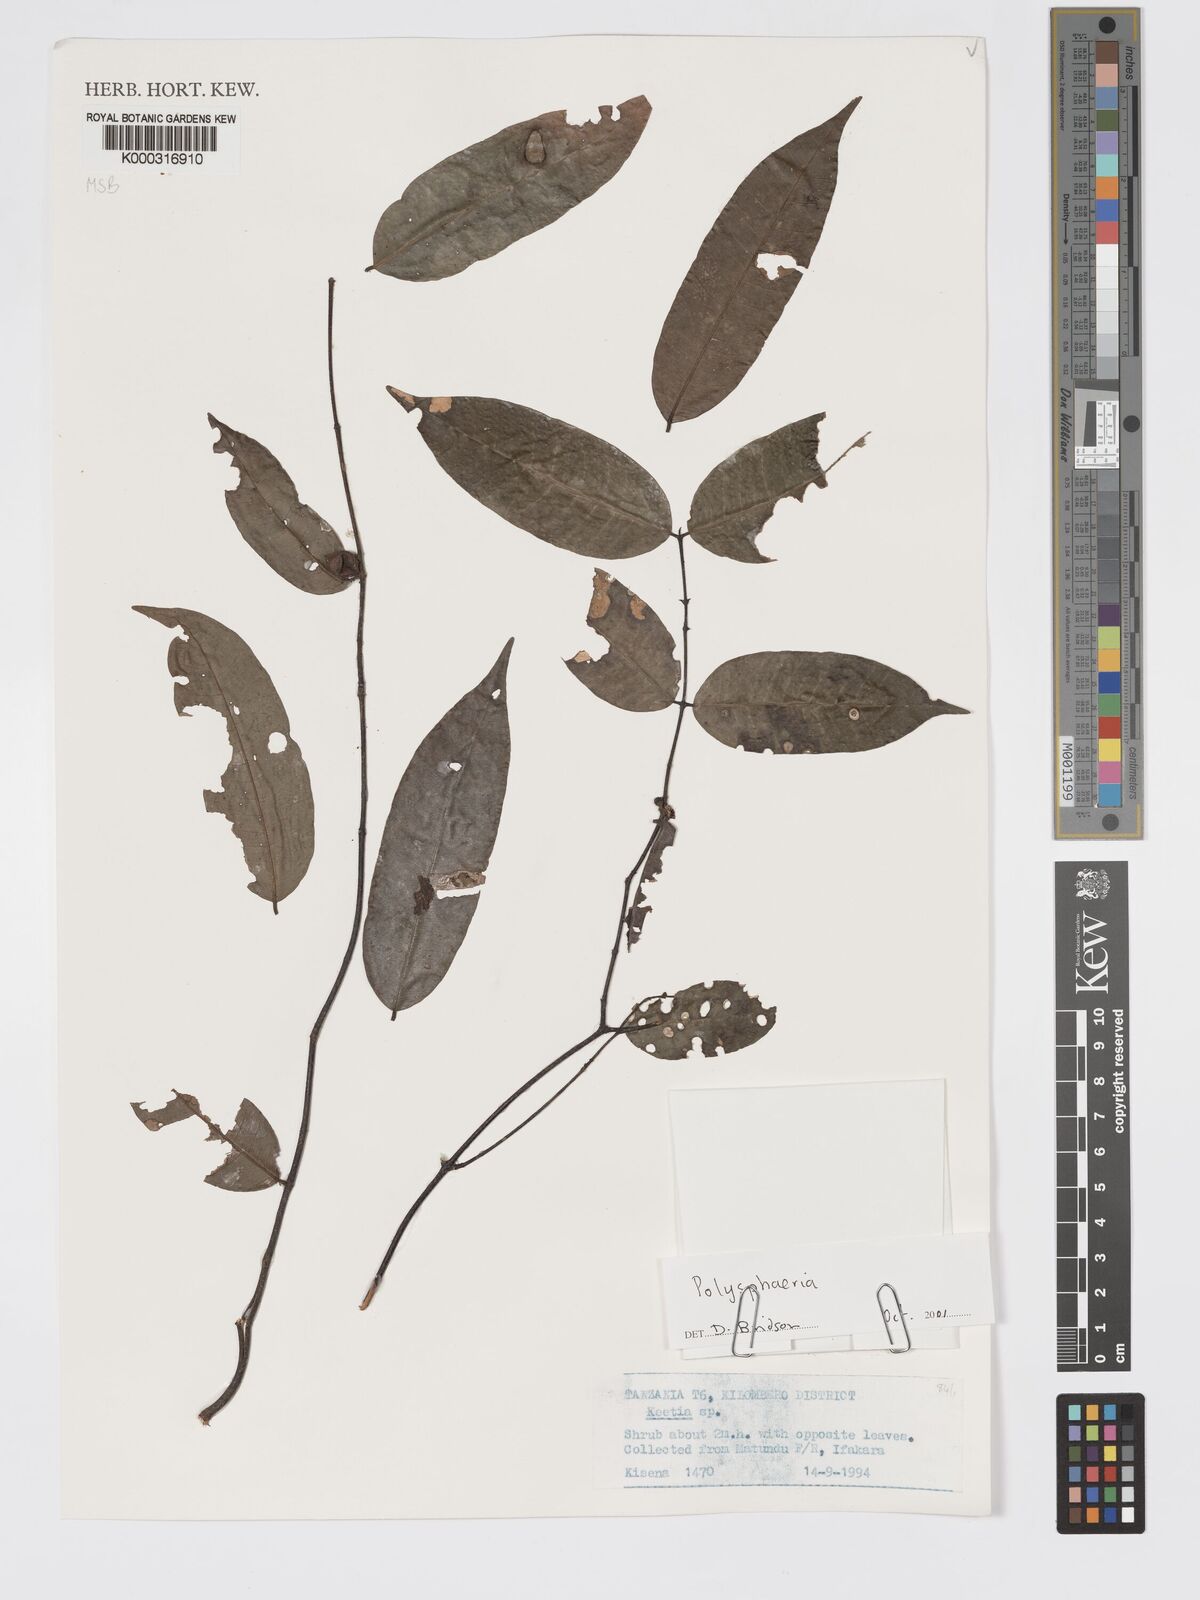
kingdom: Plantae
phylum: Tracheophyta
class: Magnoliopsida
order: Gentianales
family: Rubiaceae
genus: Polysphaeria
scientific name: Polysphaeria
